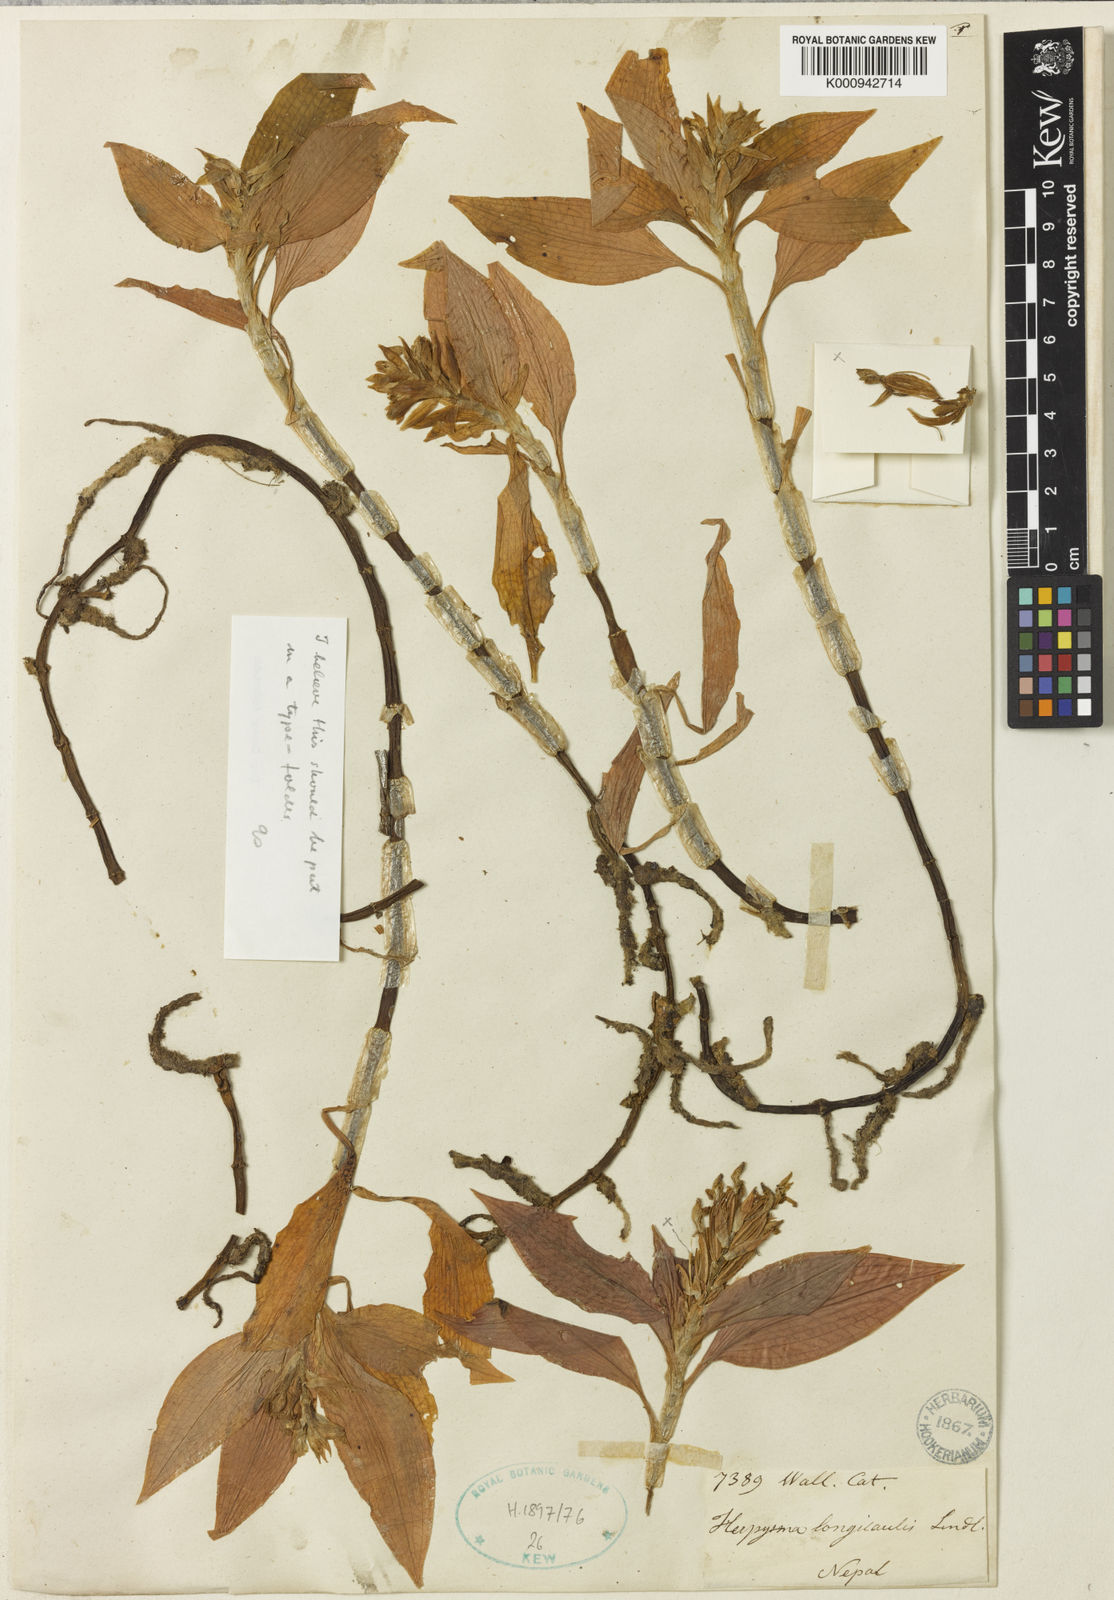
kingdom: Plantae
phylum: Tracheophyta
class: Liliopsida
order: Asparagales
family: Orchidaceae
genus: Herpysma
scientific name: Herpysma longicaulis
